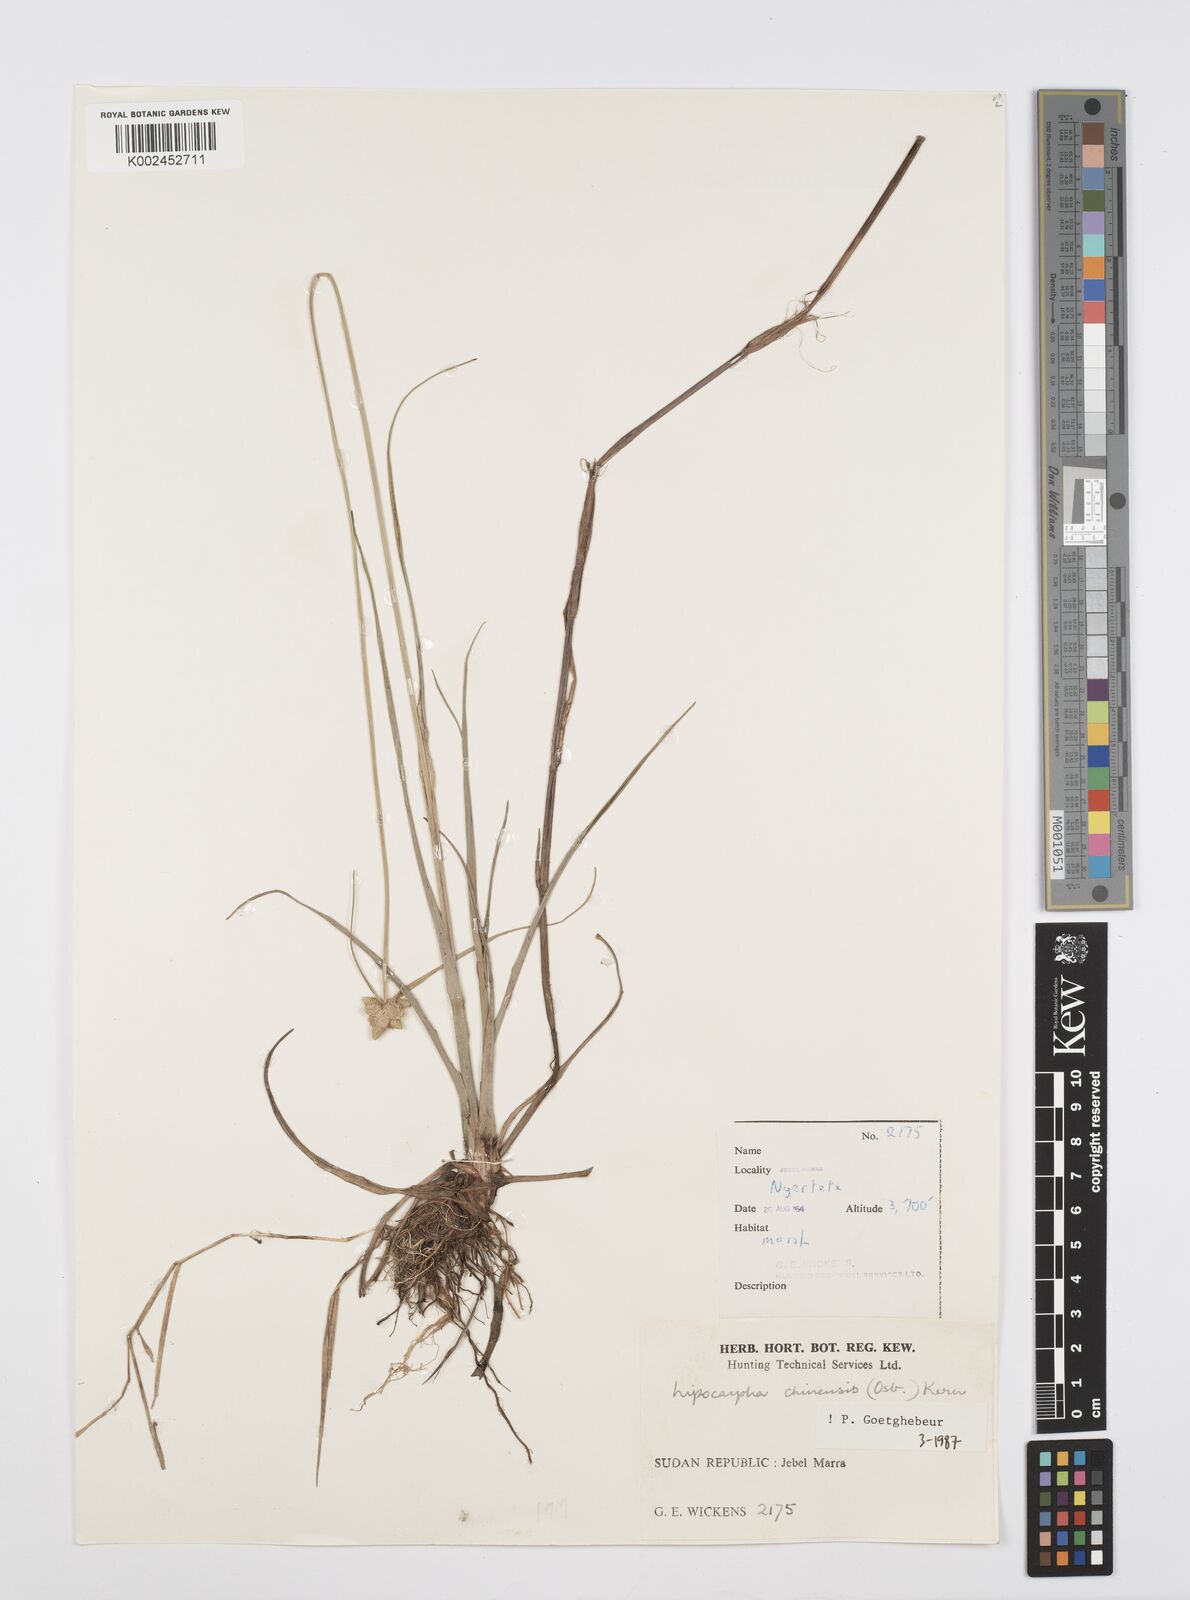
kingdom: Plantae
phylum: Tracheophyta
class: Liliopsida
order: Poales
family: Cyperaceae
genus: Cyperus
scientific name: Cyperus albescens
